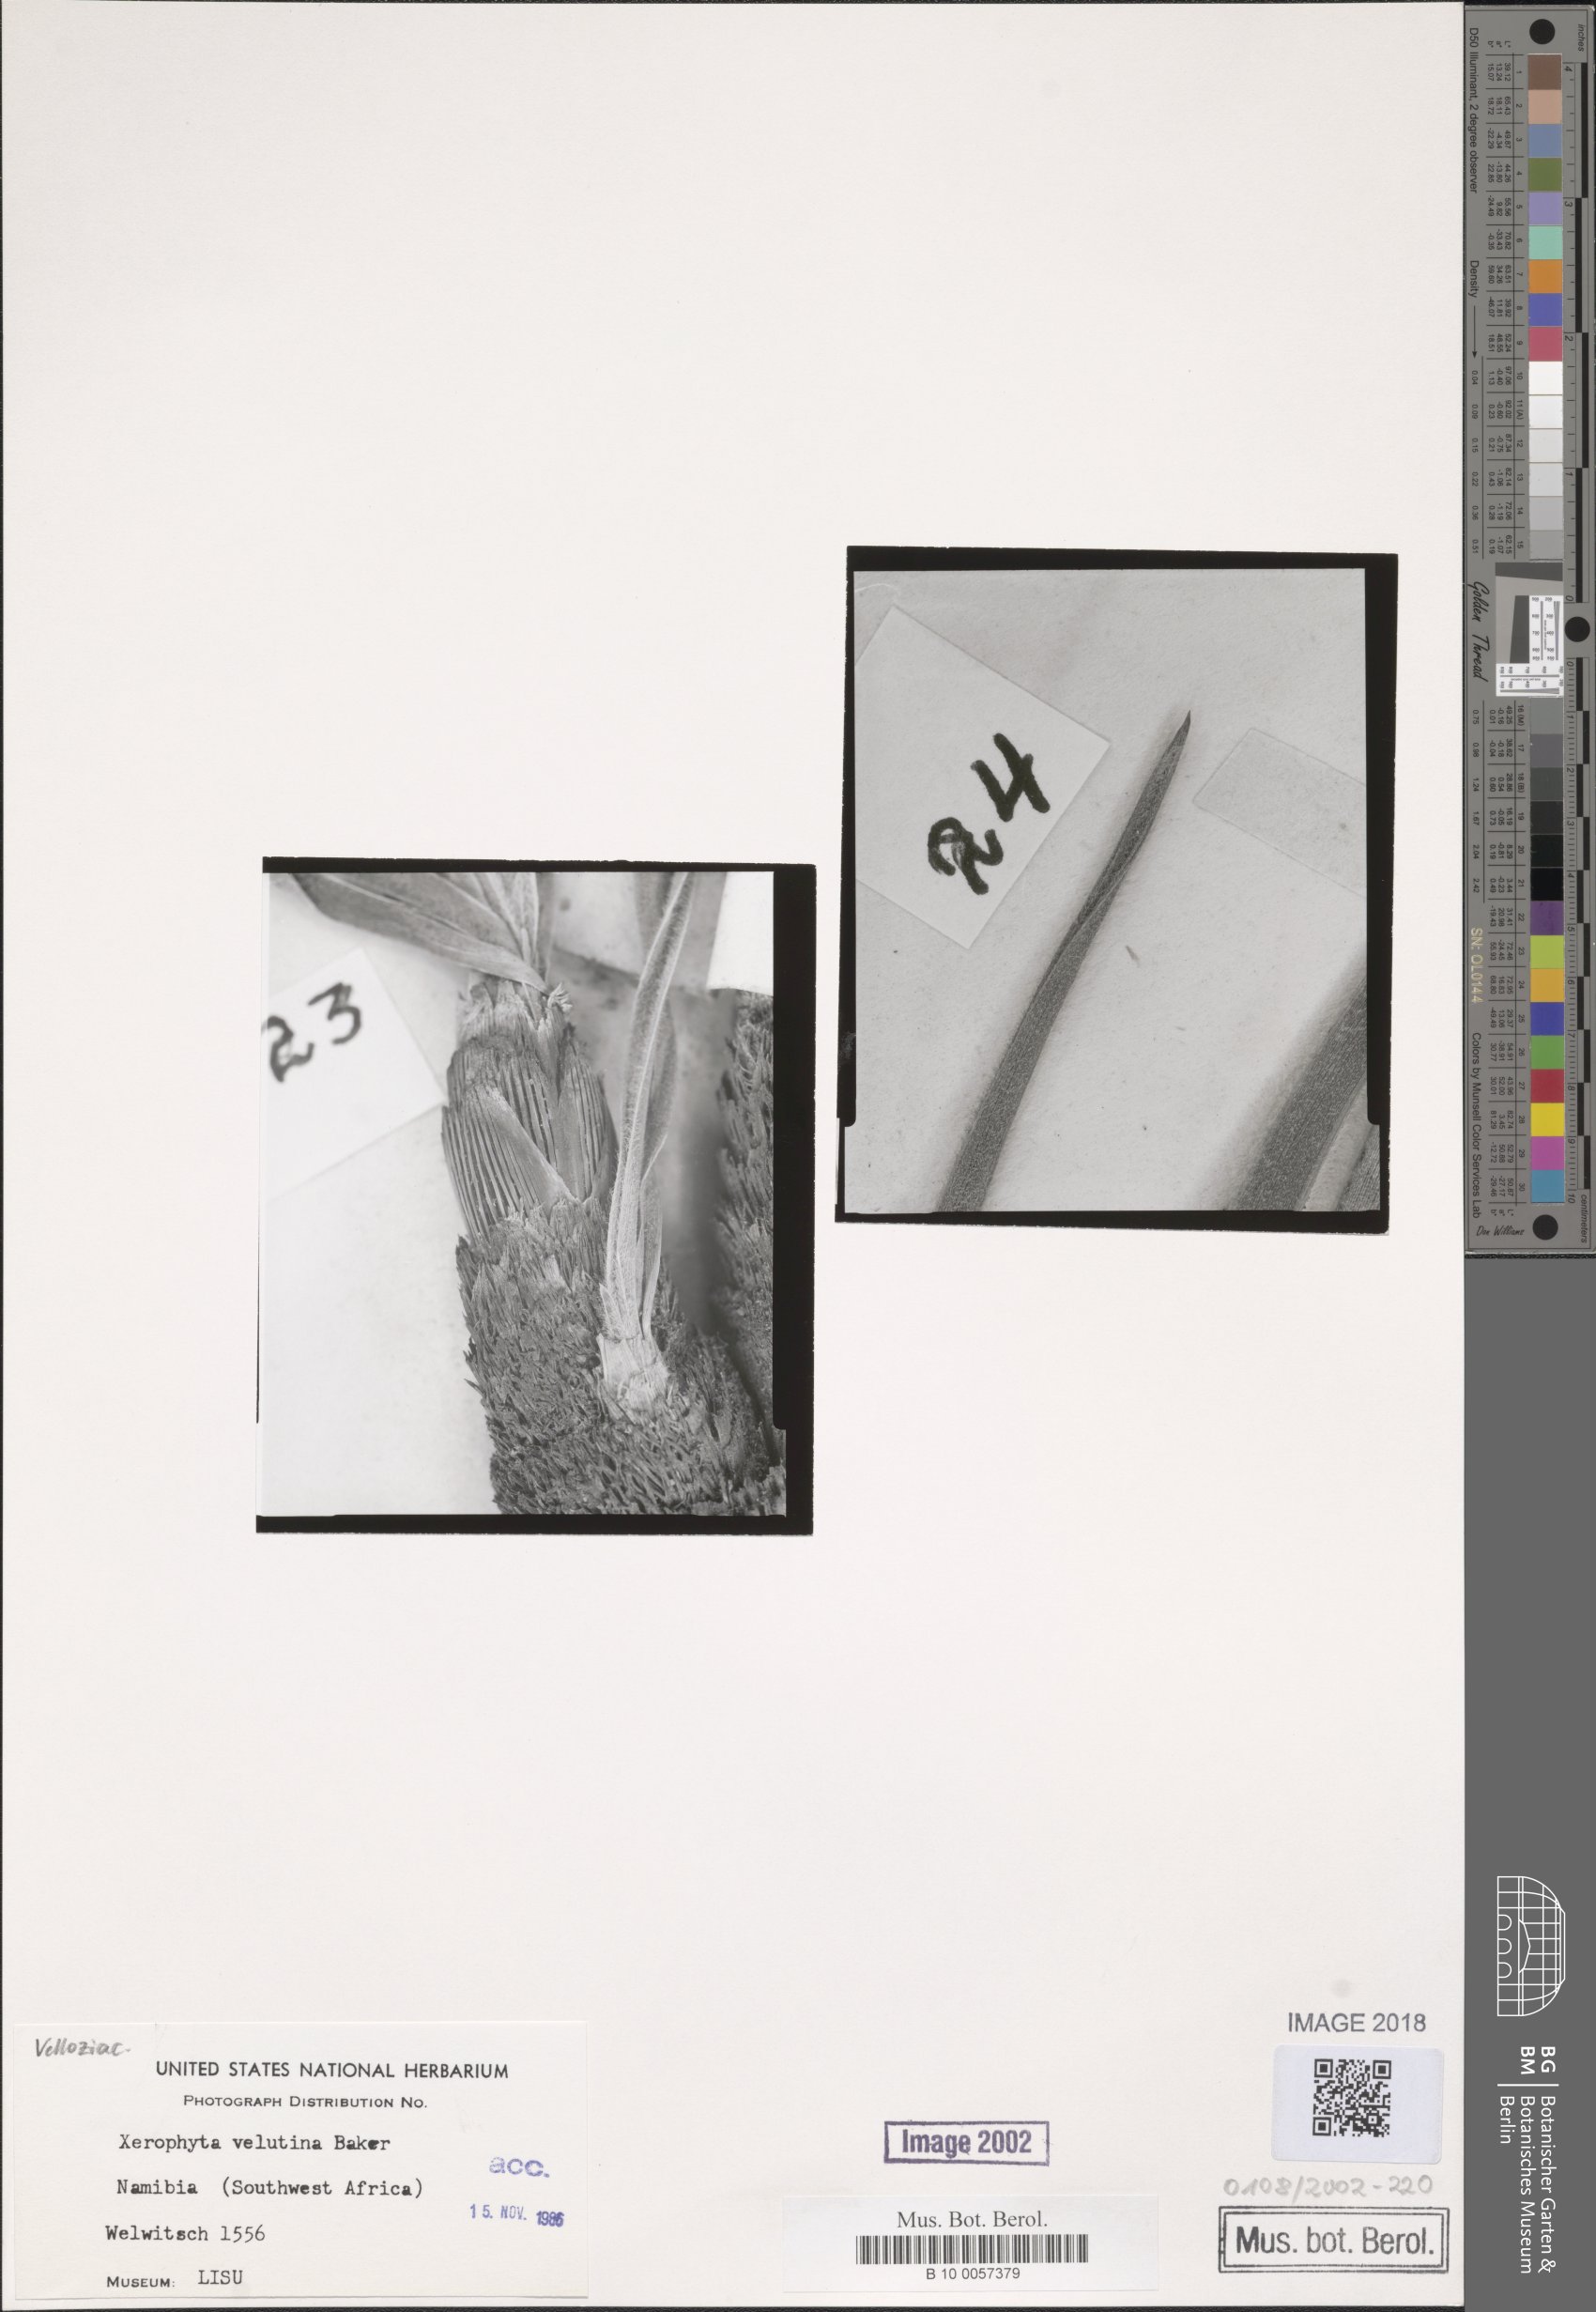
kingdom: Plantae
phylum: Tracheophyta
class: Liliopsida
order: Pandanales
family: Velloziaceae
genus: Xerophyta
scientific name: Xerophyta velutina
